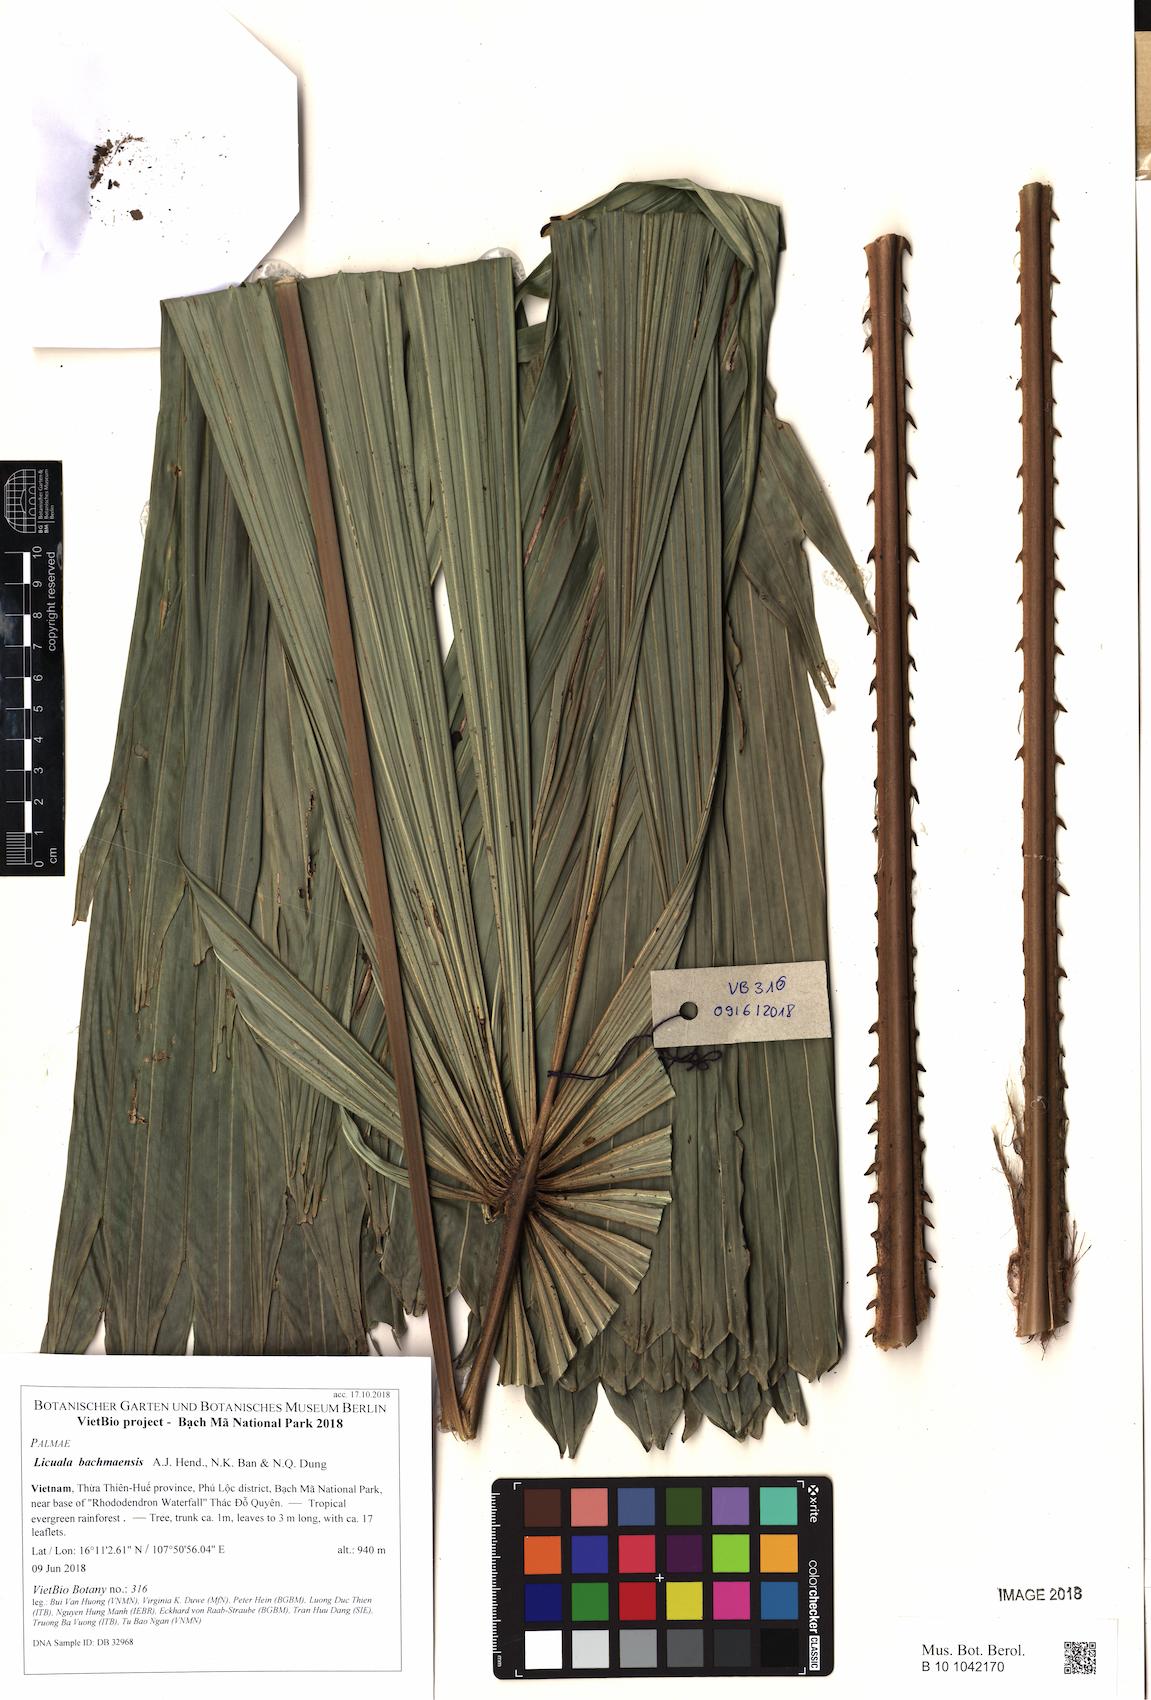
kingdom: Plantae
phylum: Tracheophyta
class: Liliopsida
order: Arecales
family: Arecaceae
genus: Licuala
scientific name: Licuala bachmaensis
